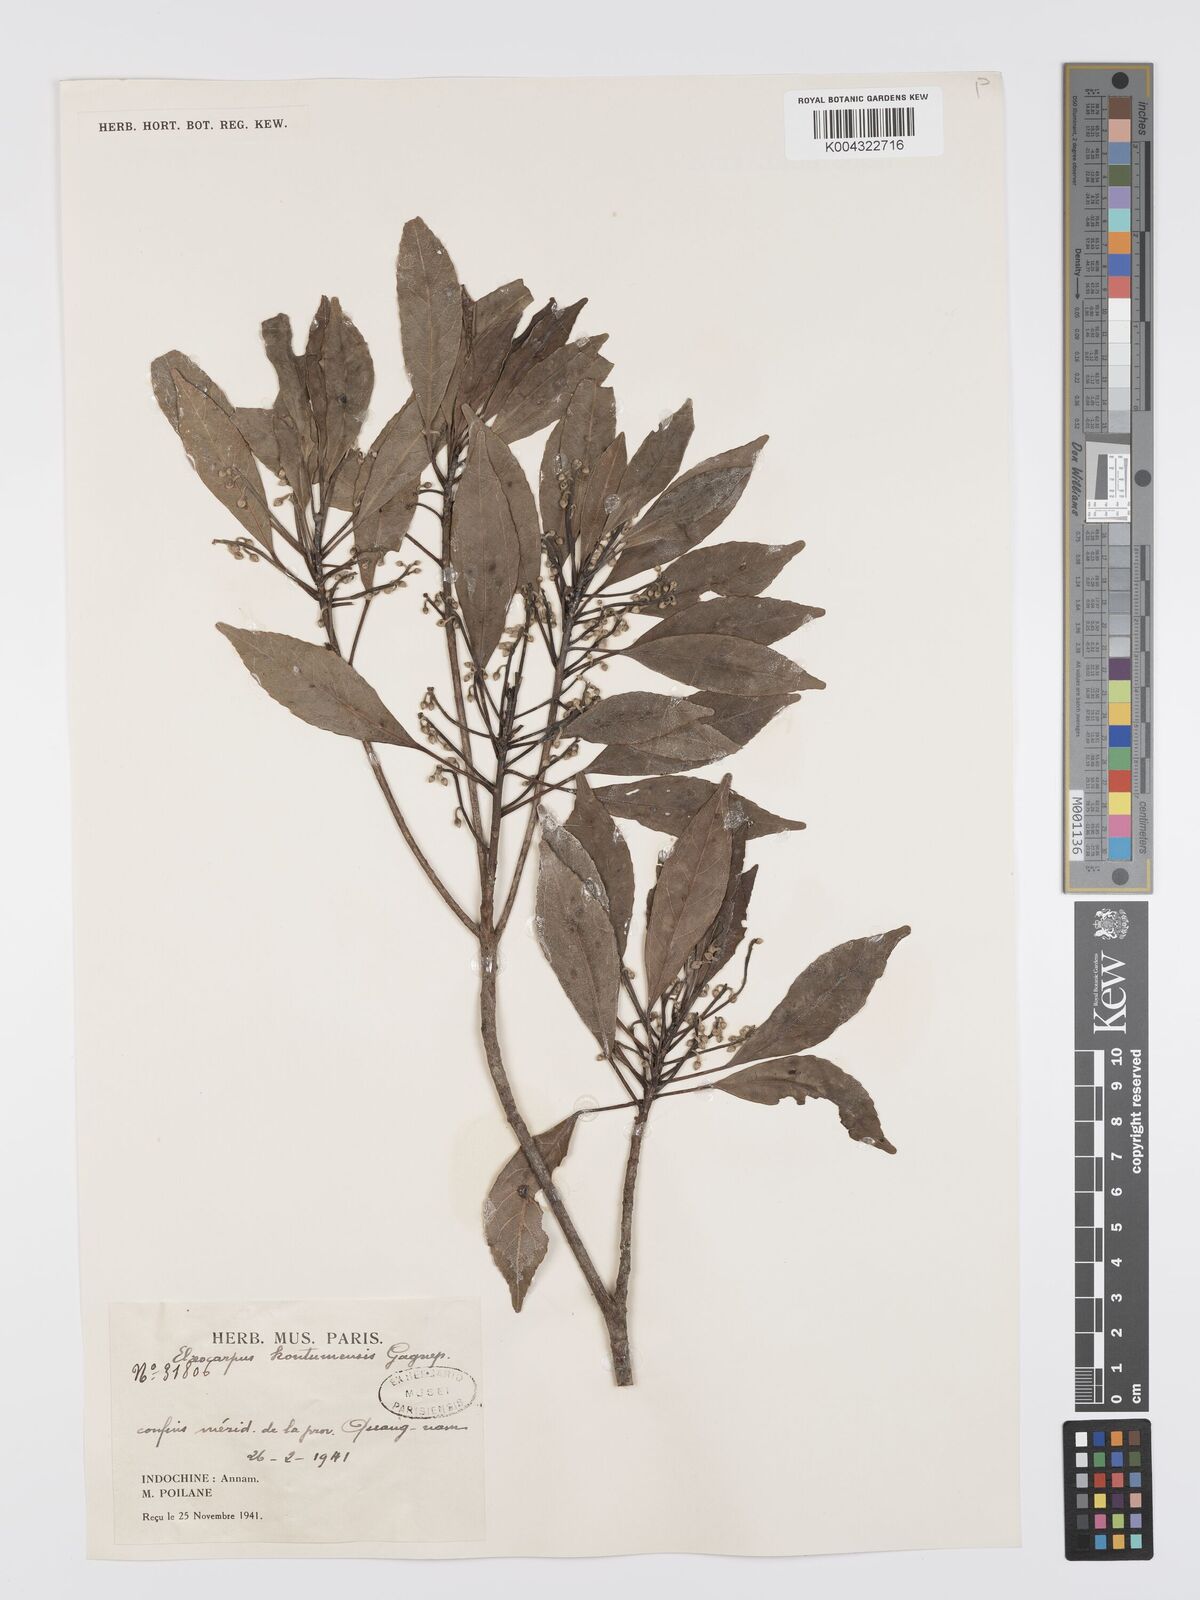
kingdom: Plantae
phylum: Tracheophyta
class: Magnoliopsida
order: Oxalidales
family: Elaeocarpaceae
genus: Elaeocarpus
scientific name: Elaeocarpus kontumensis
